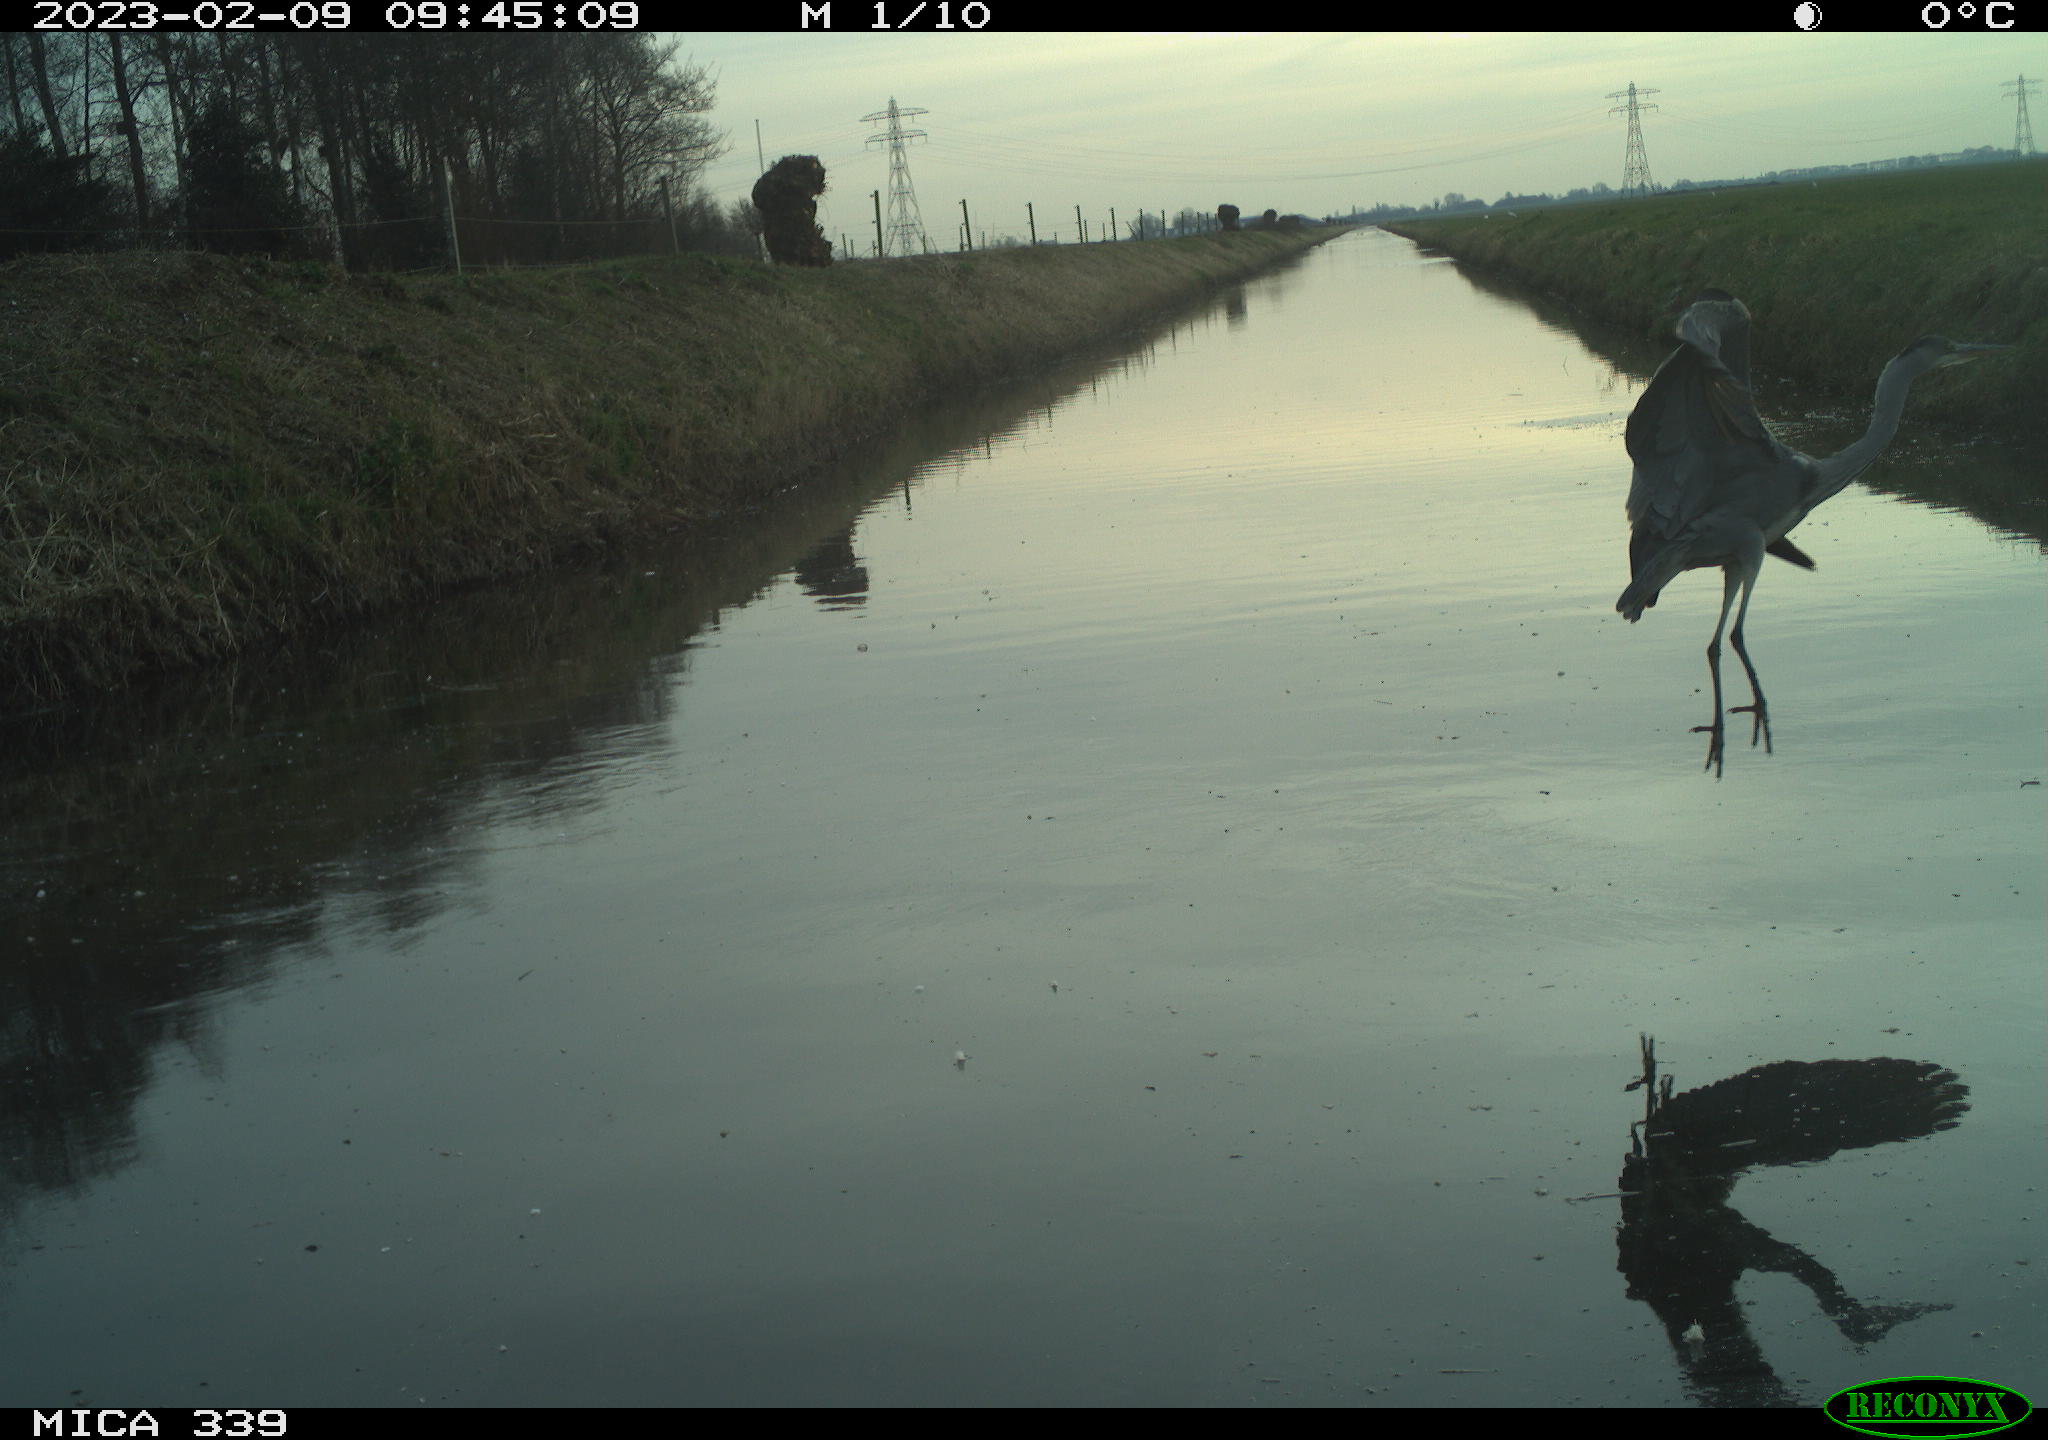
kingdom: Animalia
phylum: Chordata
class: Aves
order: Pelecaniformes
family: Ardeidae
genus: Ardea
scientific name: Ardea cinerea
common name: Grey heron
